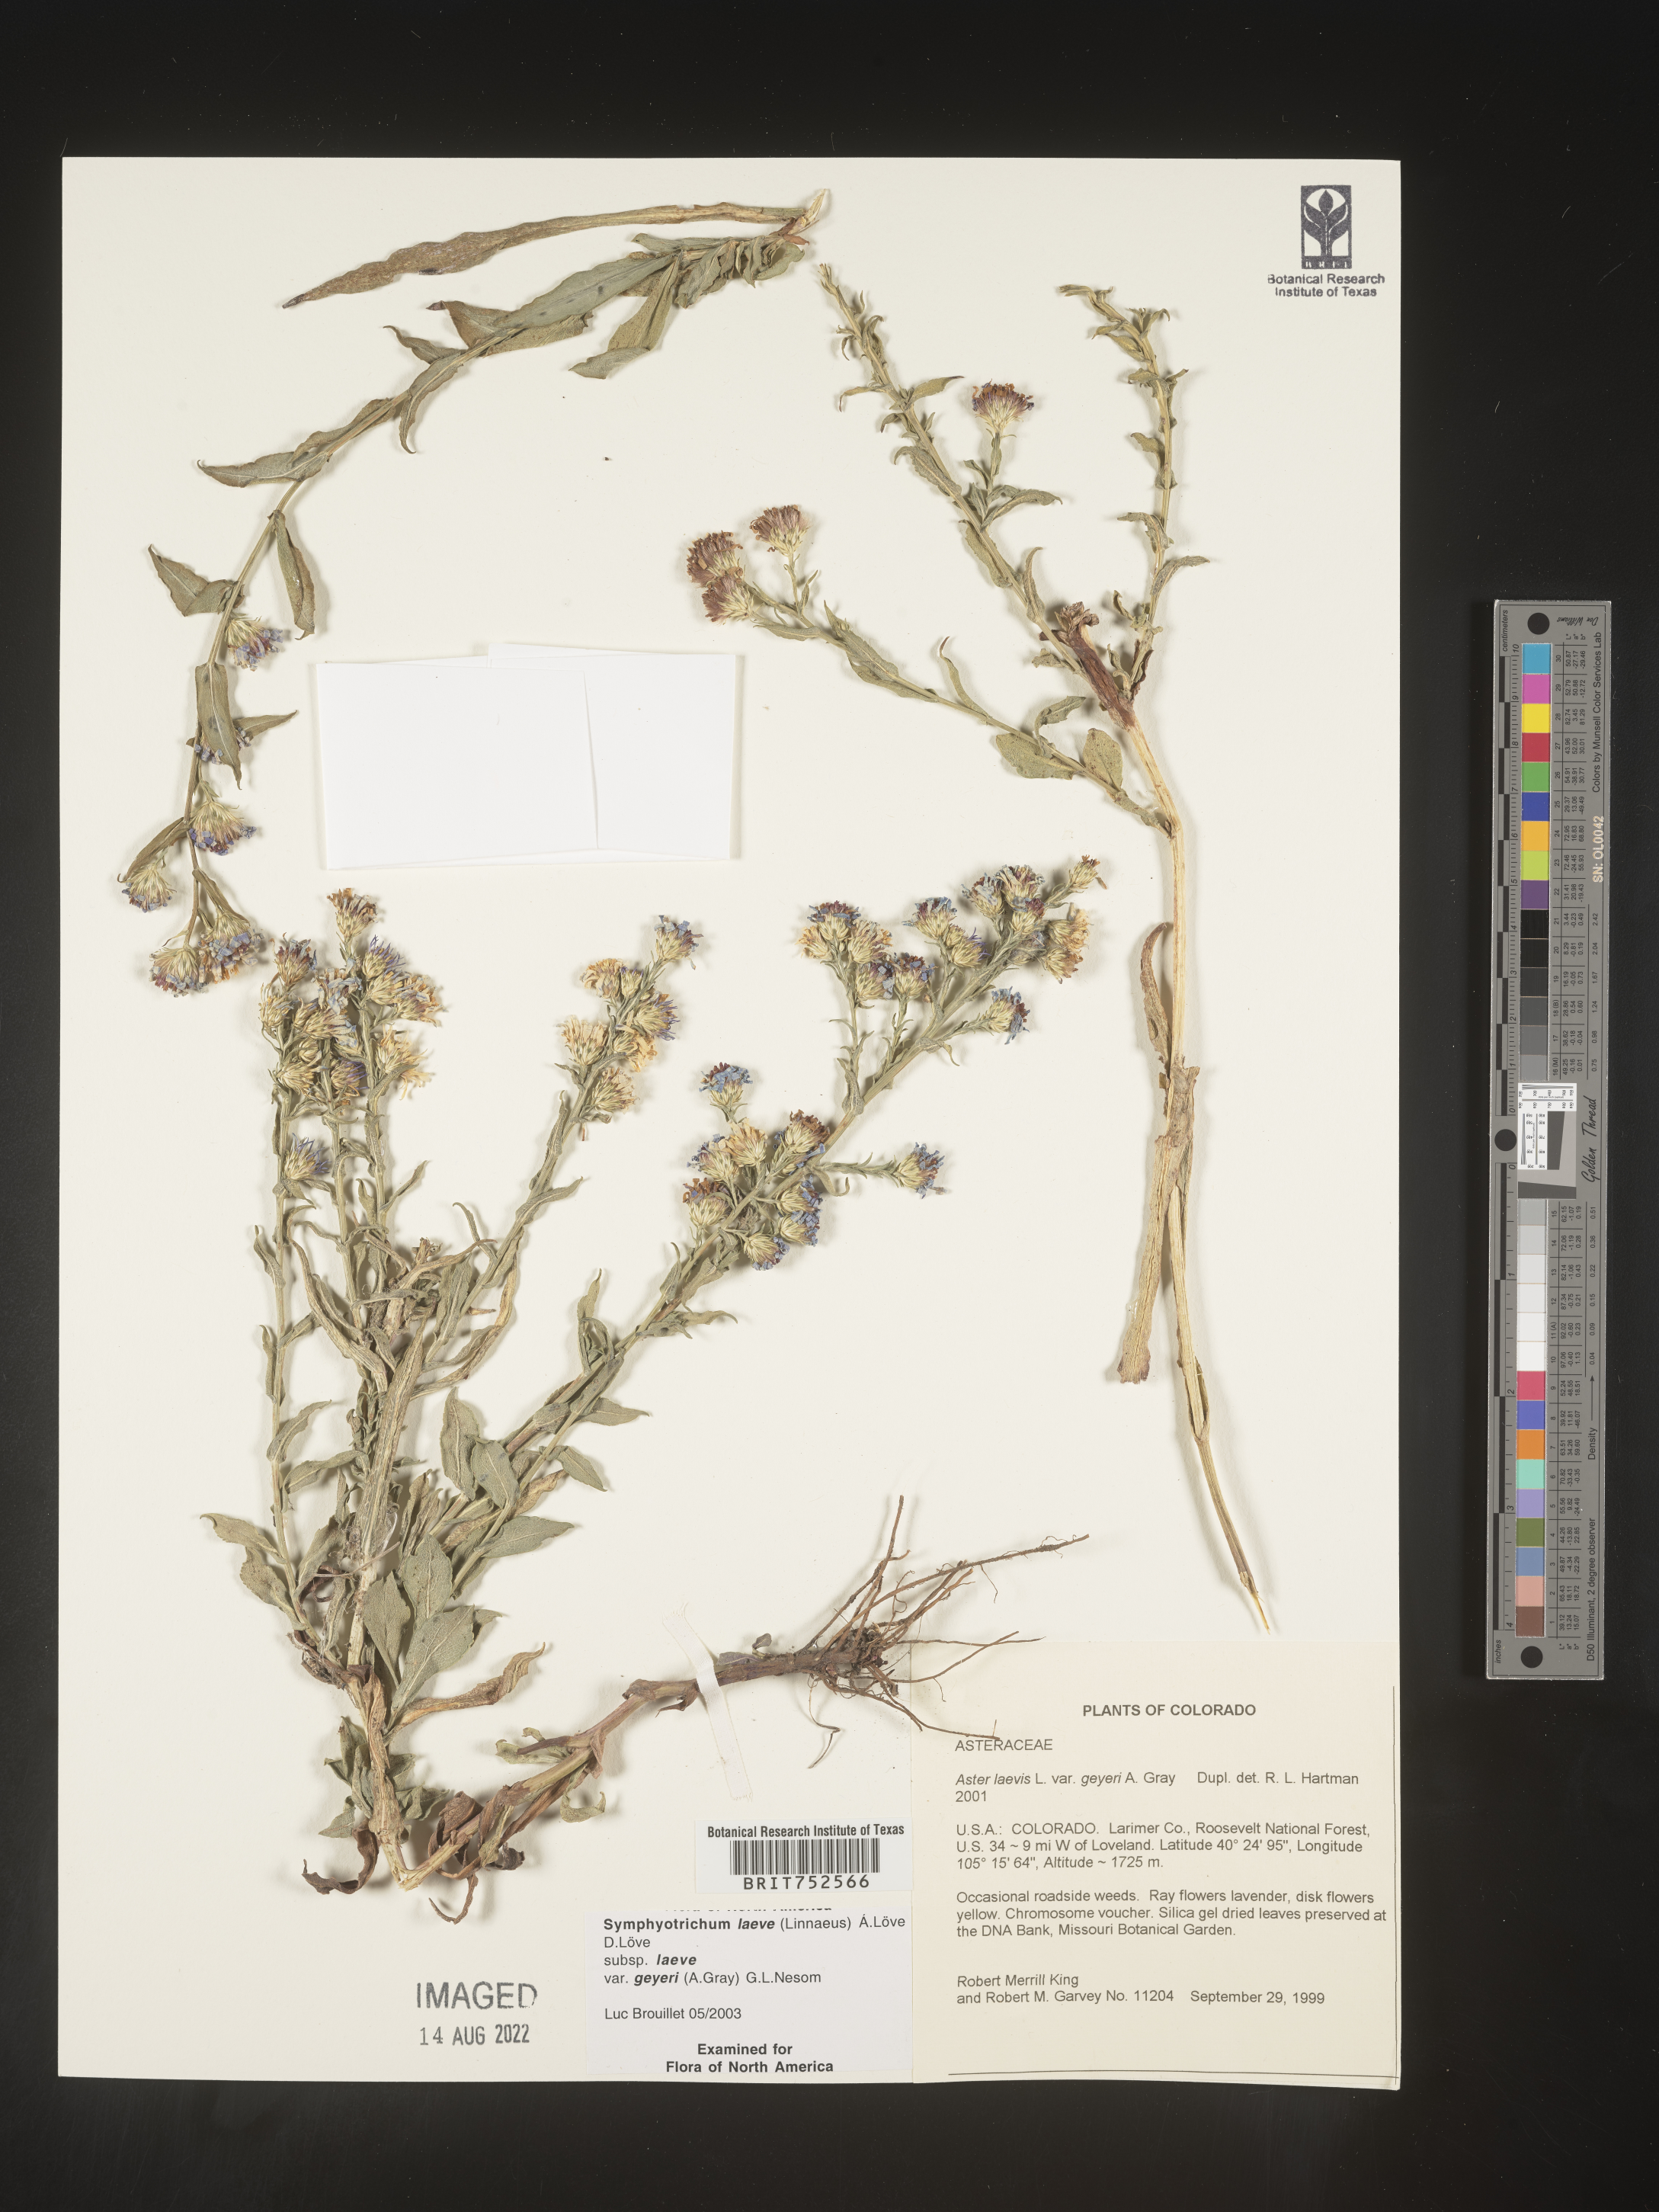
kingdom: Plantae
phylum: Tracheophyta
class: Magnoliopsida
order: Asterales
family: Asteraceae
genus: Symphyotrichum
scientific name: Symphyotrichum laeve
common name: Glaucous aster
